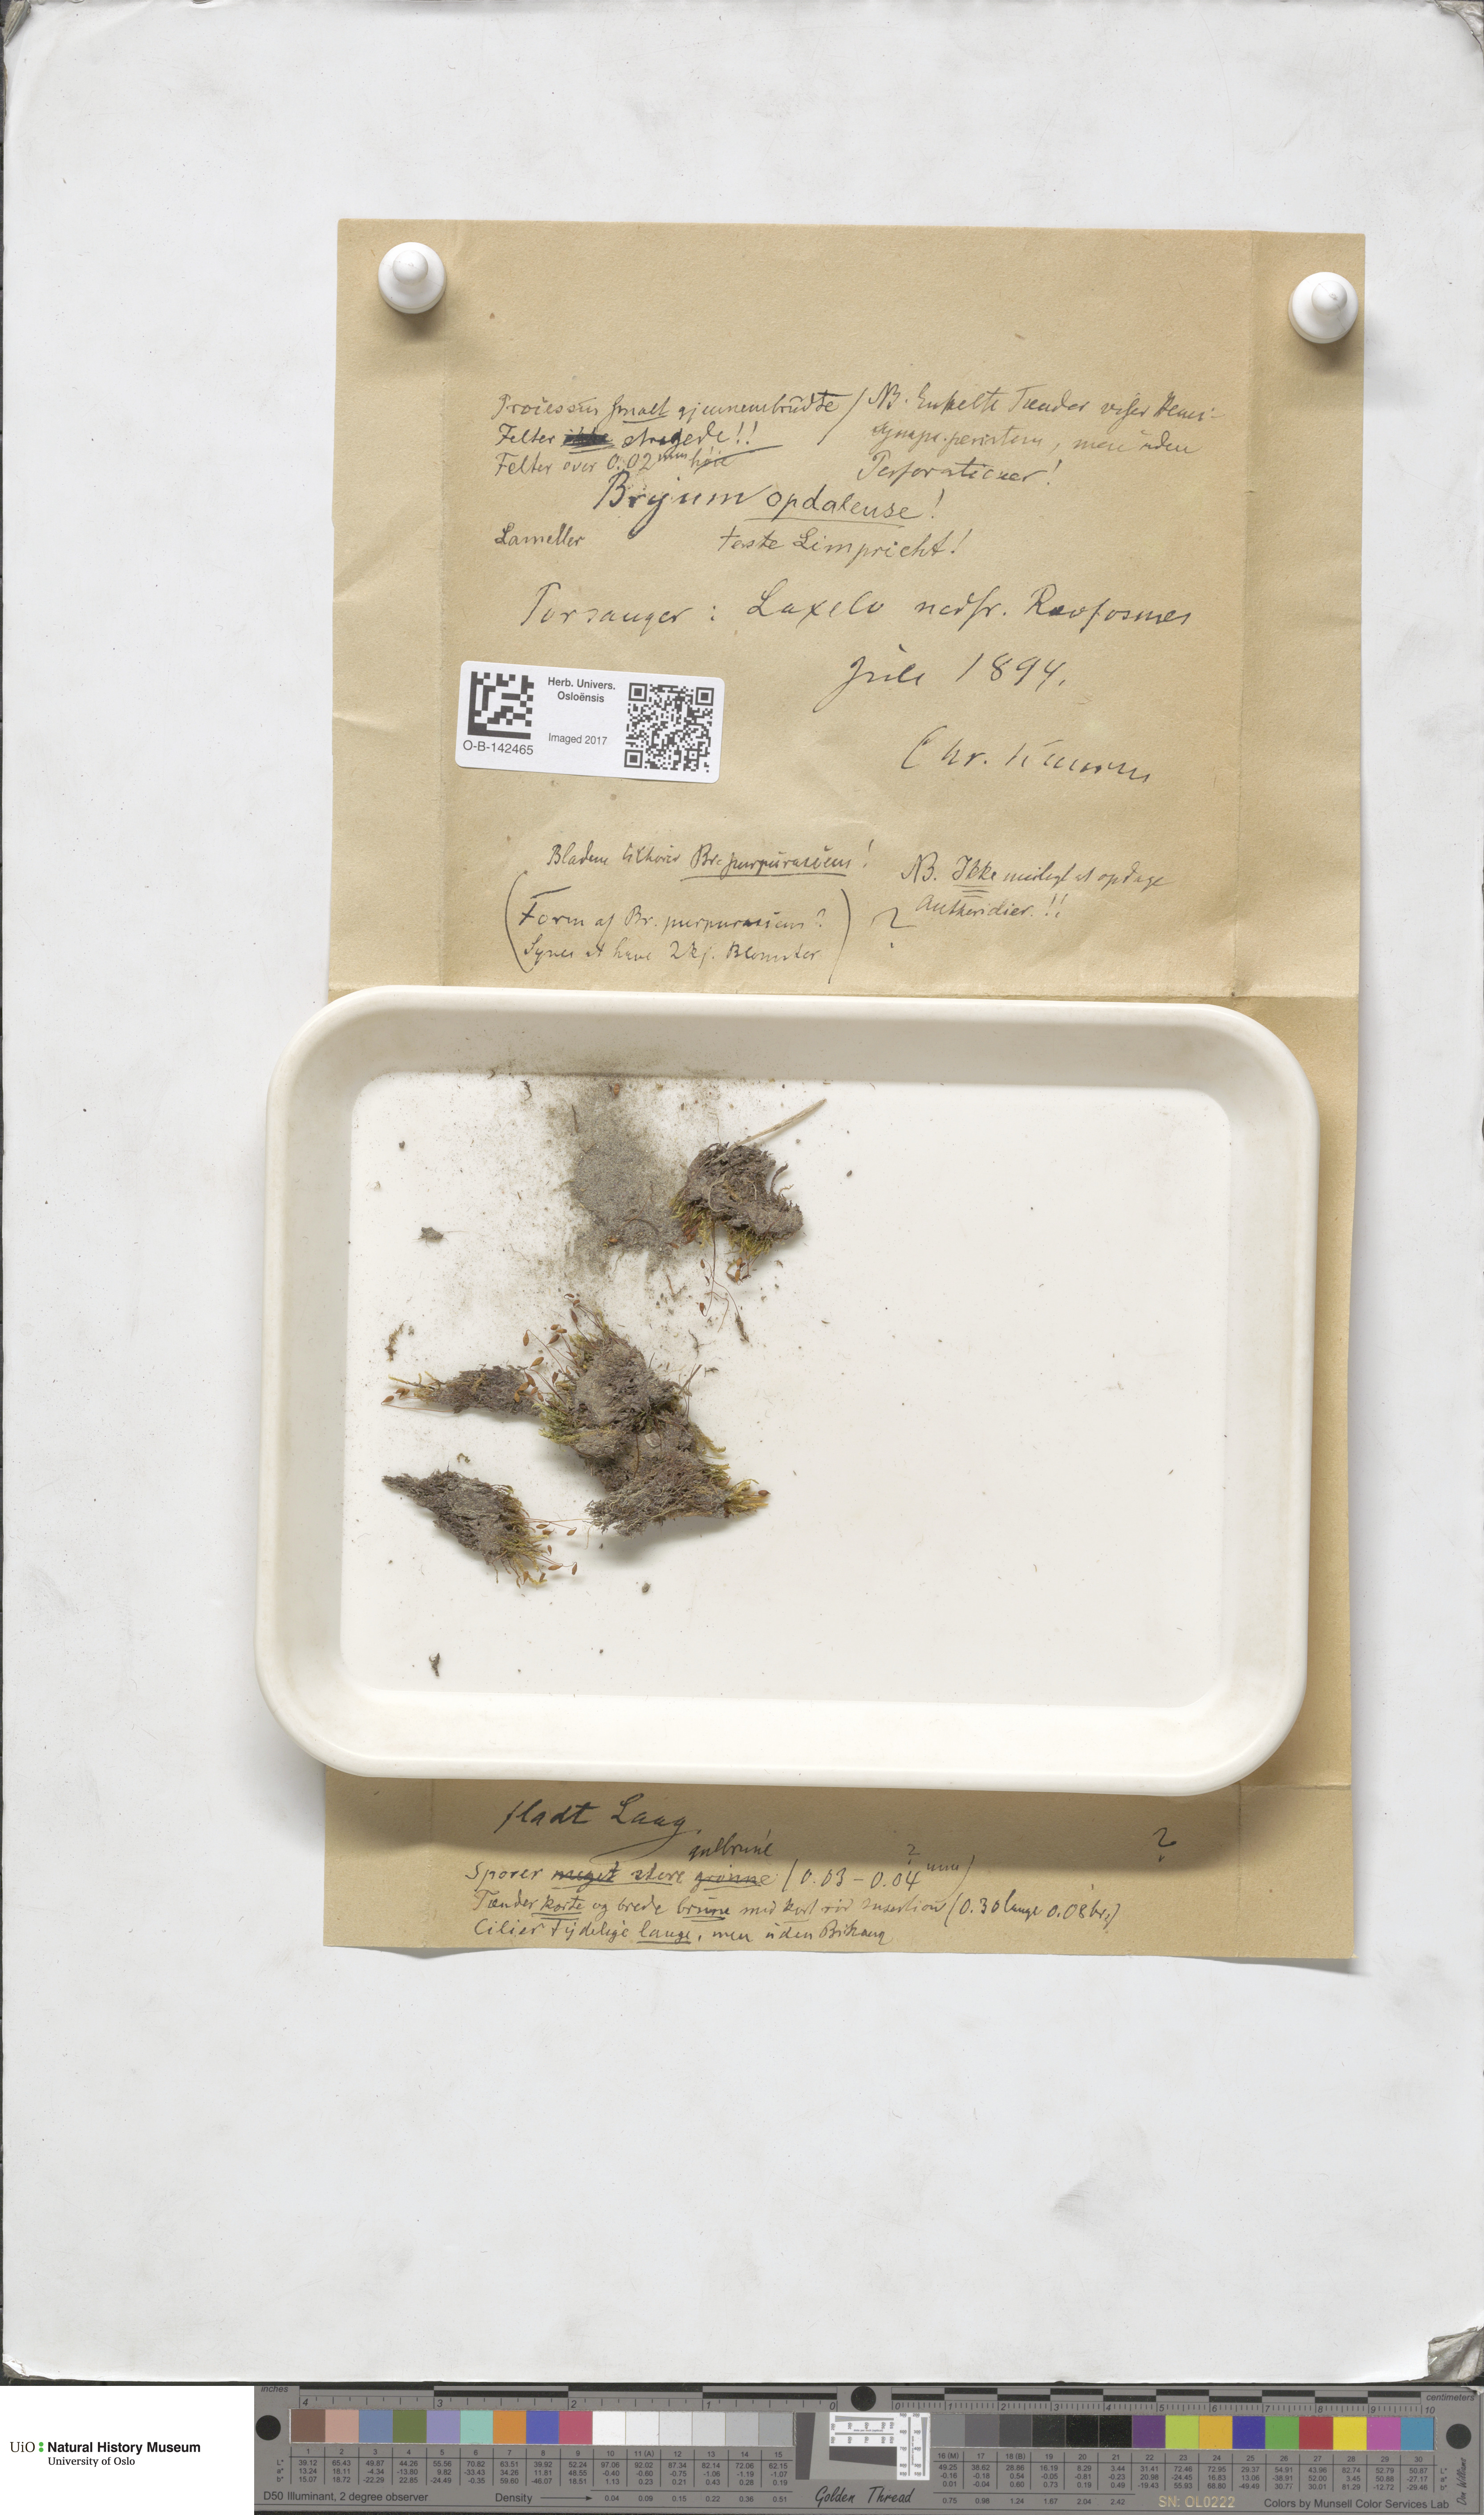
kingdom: Plantae
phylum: Bryophyta
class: Bryopsida
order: Bryales
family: Bryaceae
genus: Ptychostomum
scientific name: Ptychostomum arcticum
